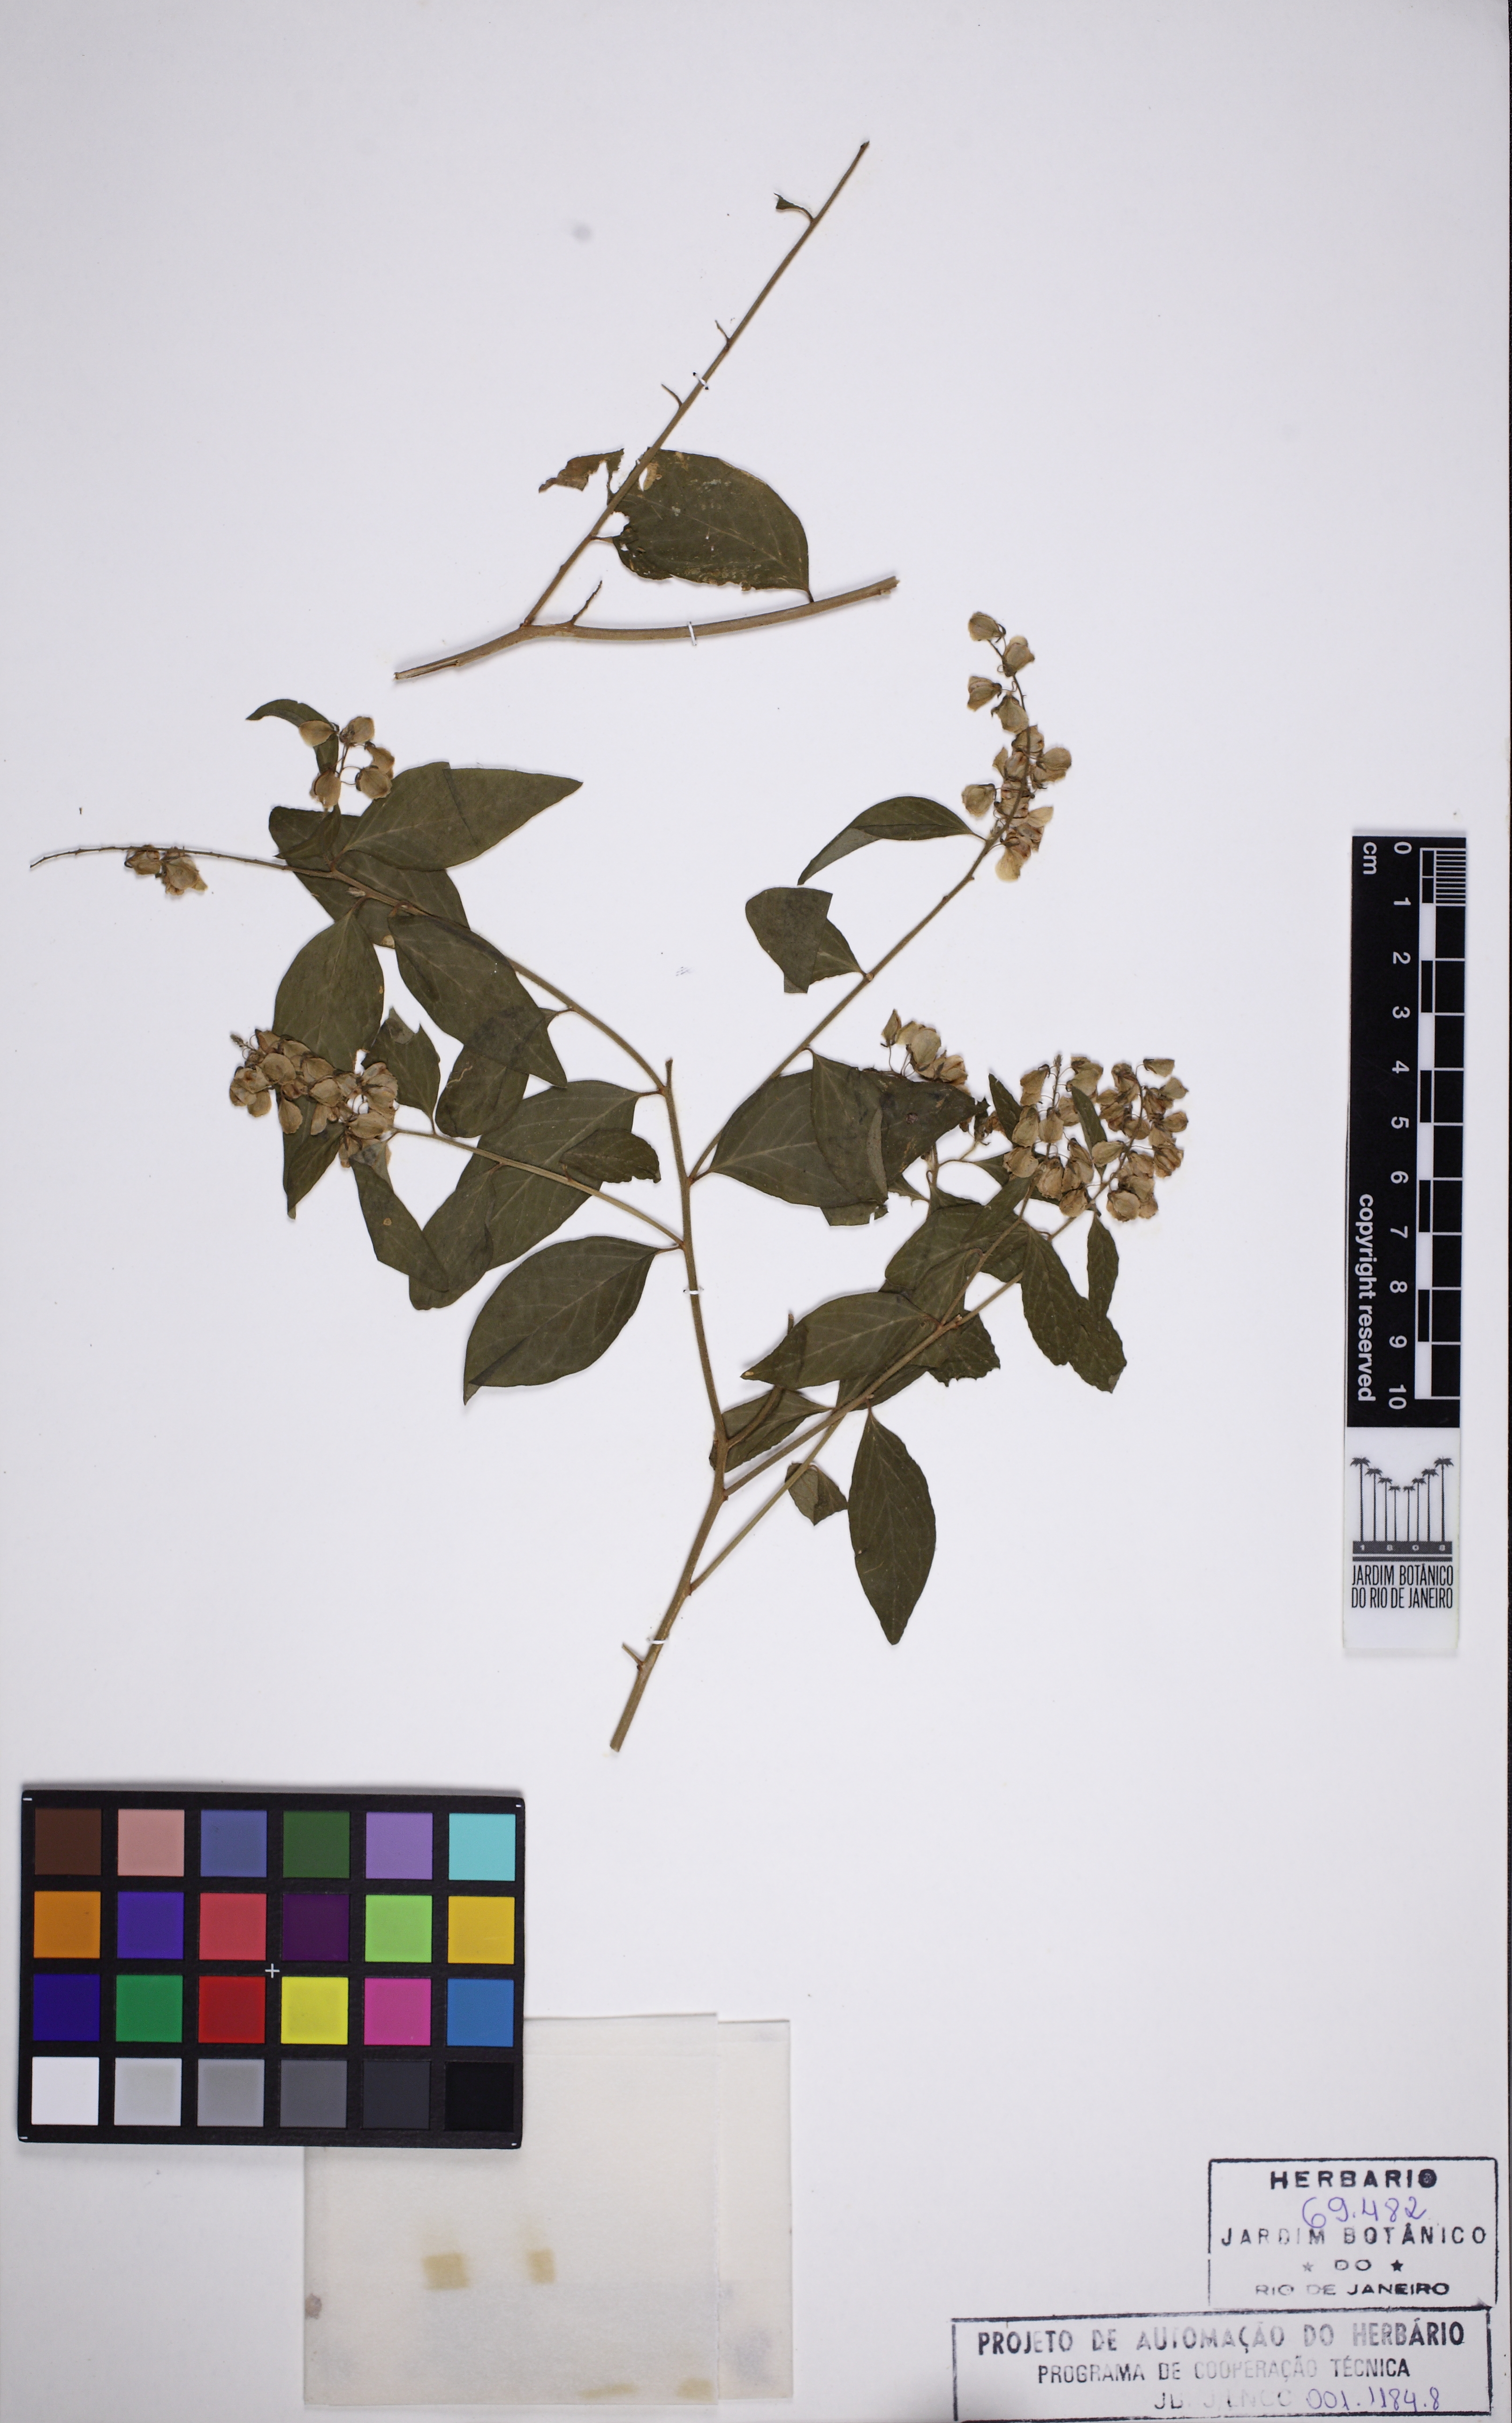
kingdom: Plantae
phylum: Tracheophyta
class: Magnoliopsida
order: Fabales
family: Polygalaceae
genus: Asemeia
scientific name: Asemeia monninoides
